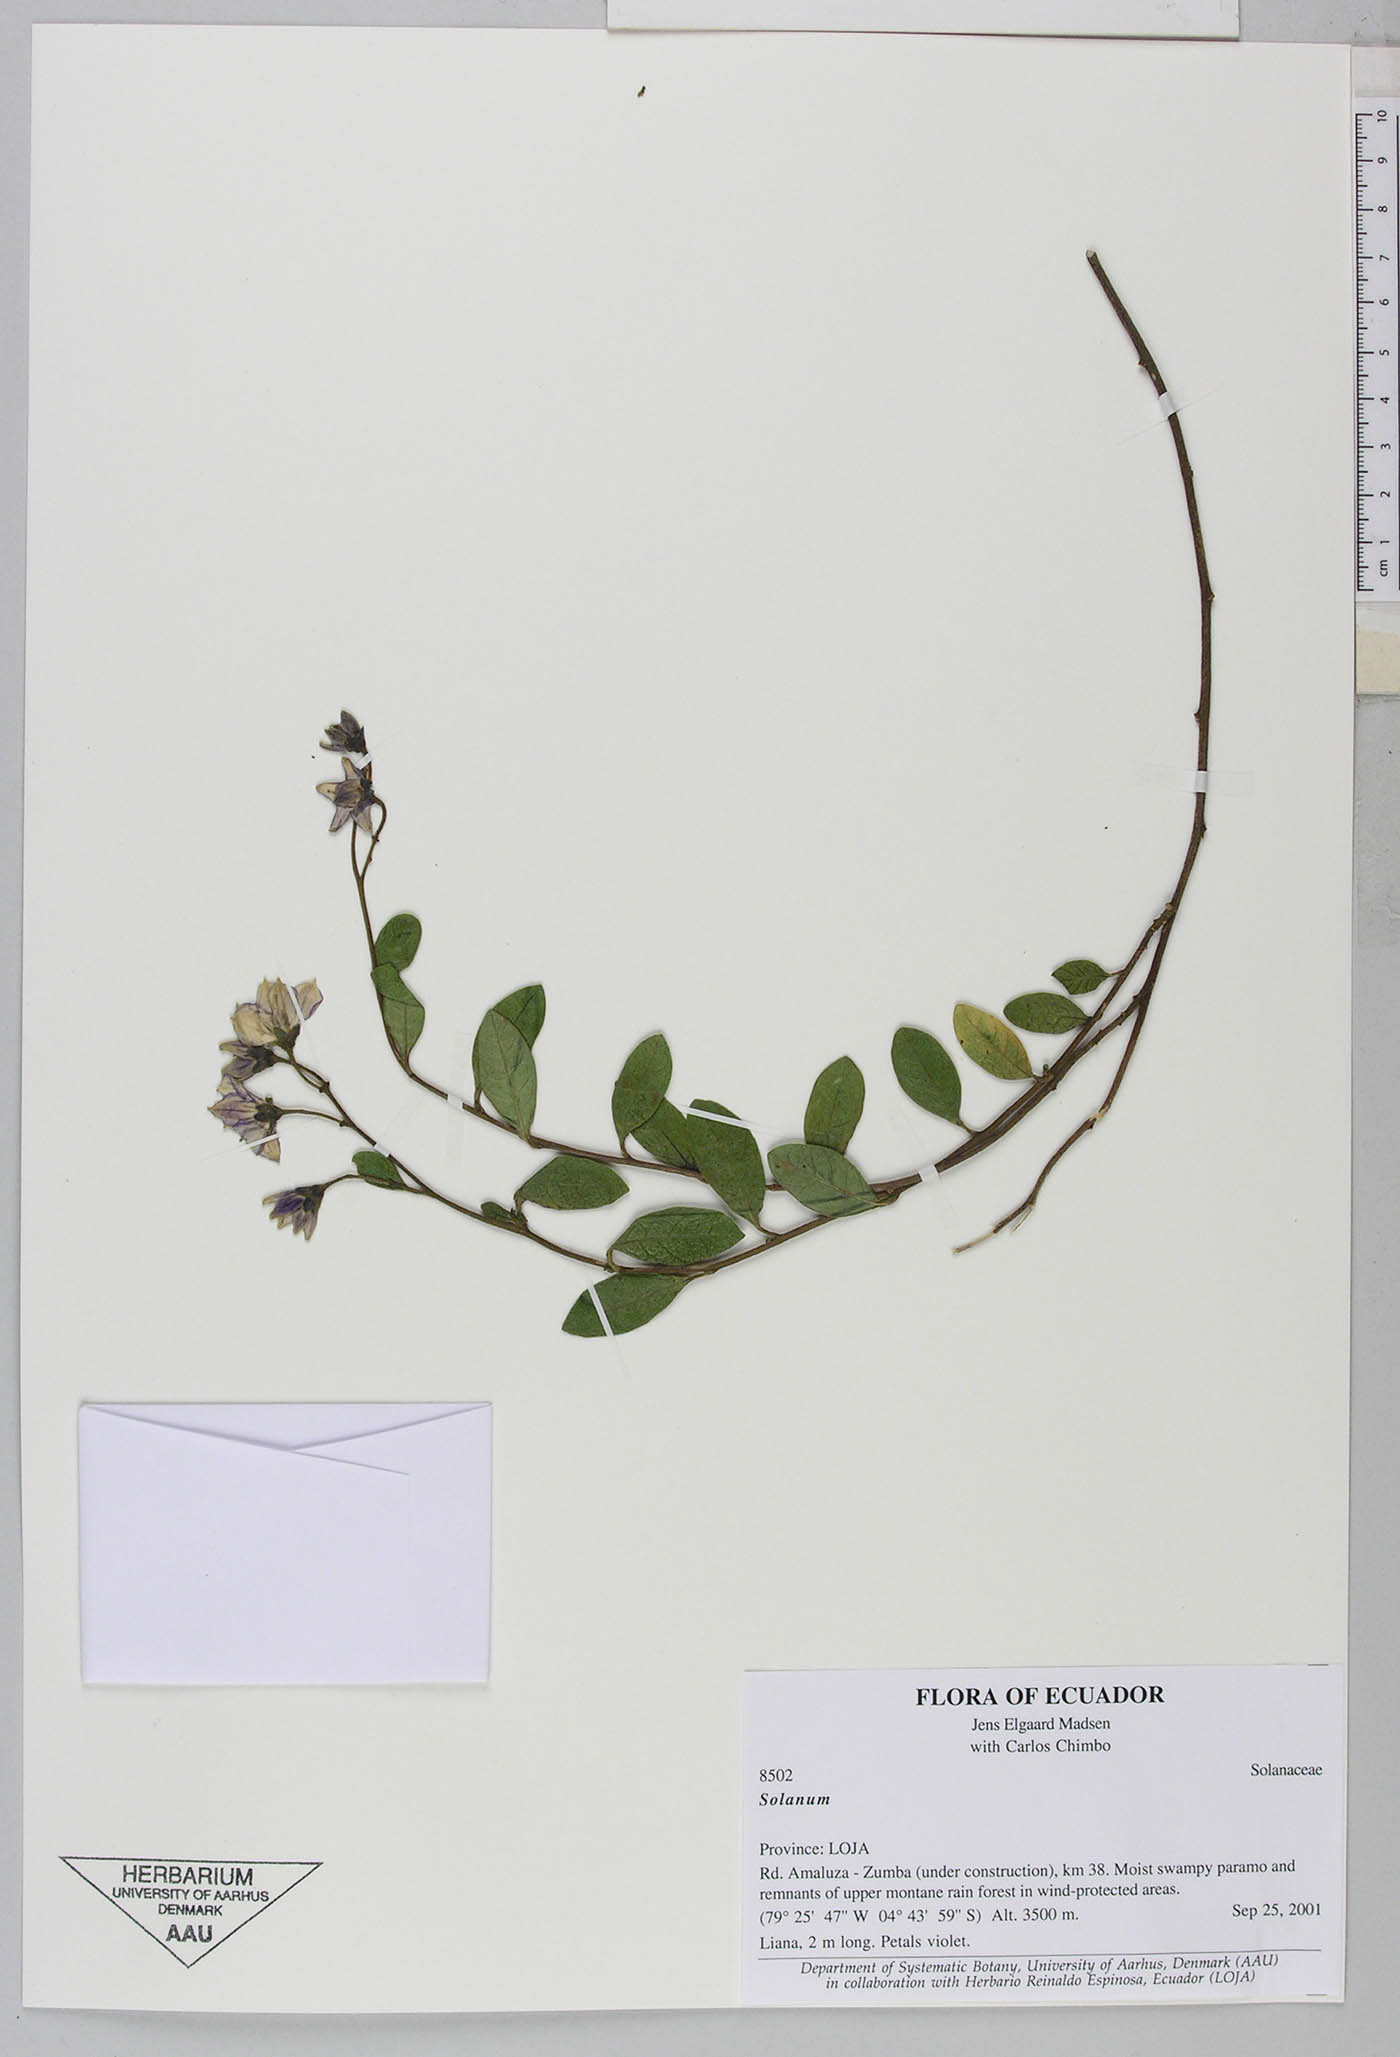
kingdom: Plantae
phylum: Tracheophyta
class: Magnoliopsida
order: Solanales
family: Solanaceae
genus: Solanum
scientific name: Solanum stenophyllum
